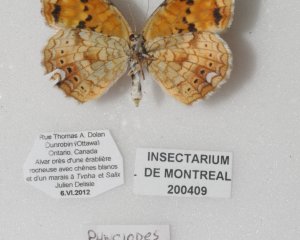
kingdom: Animalia
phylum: Arthropoda
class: Insecta
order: Lepidoptera
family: Nymphalidae
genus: Phyciodes
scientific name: Phyciodes batesii
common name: Tawny Crescent
